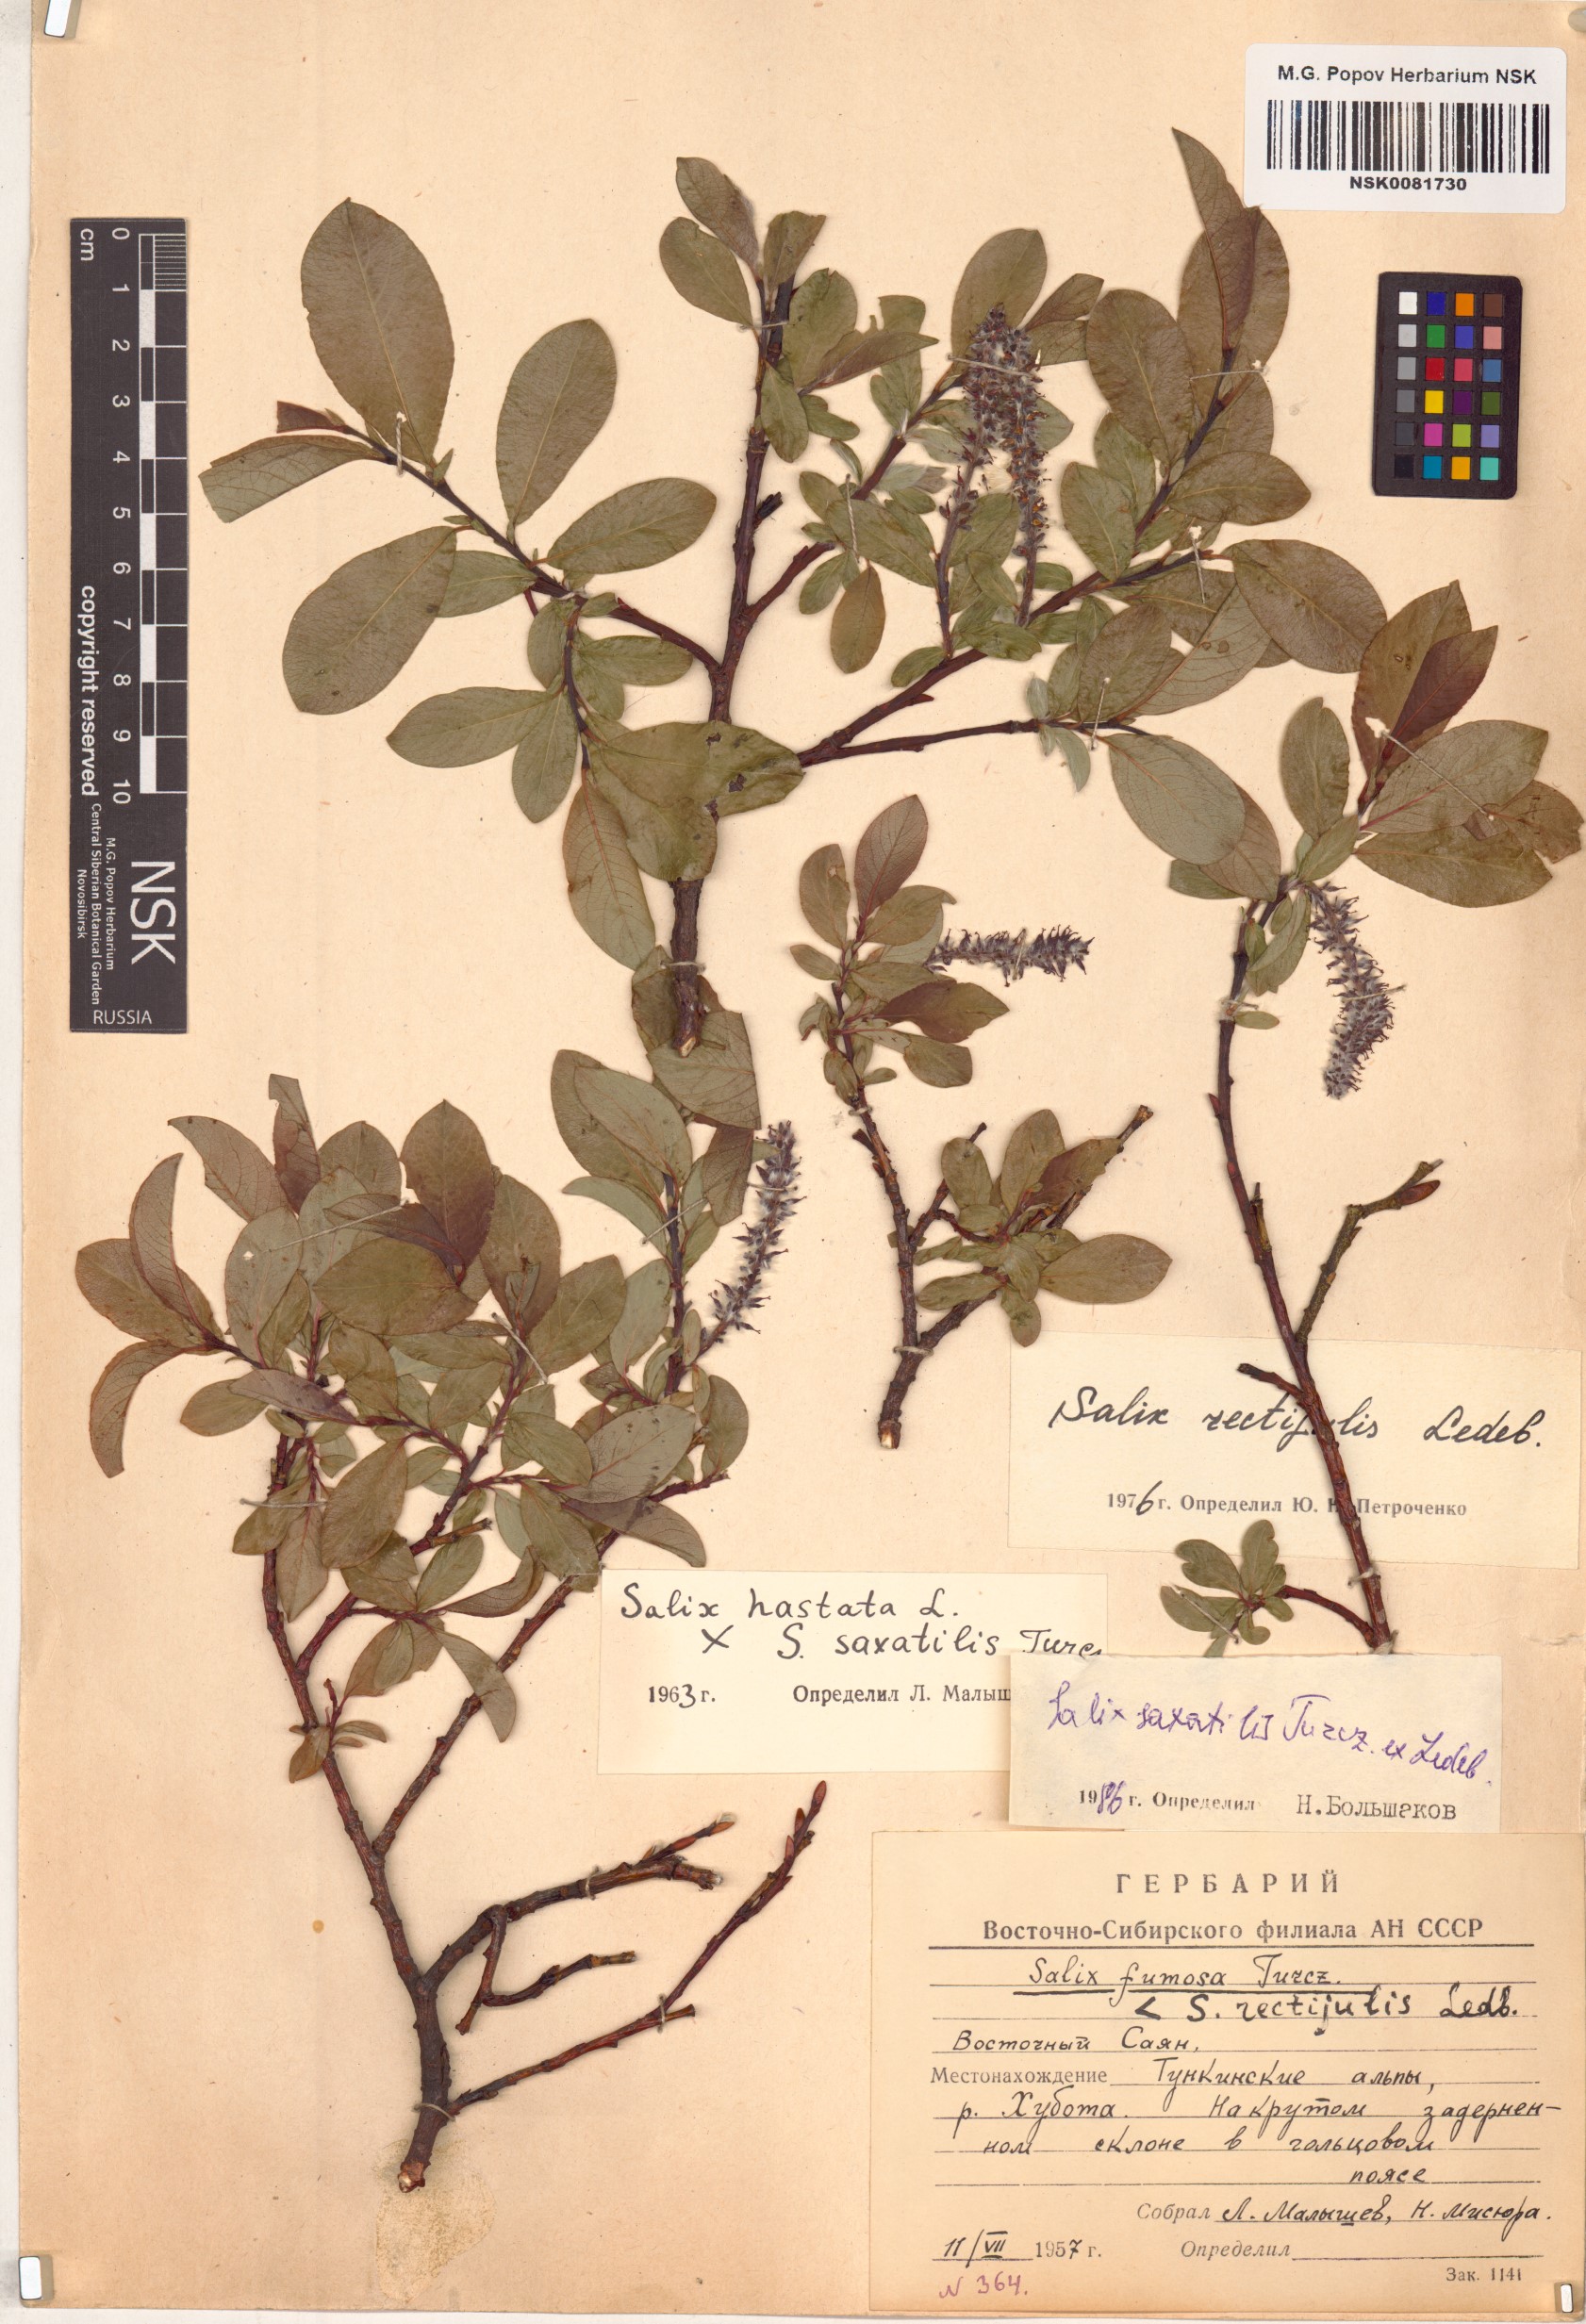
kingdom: Plantae
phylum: Tracheophyta
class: Magnoliopsida
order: Malpighiales
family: Salicaceae
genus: Salix
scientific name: Salix saxatilis
